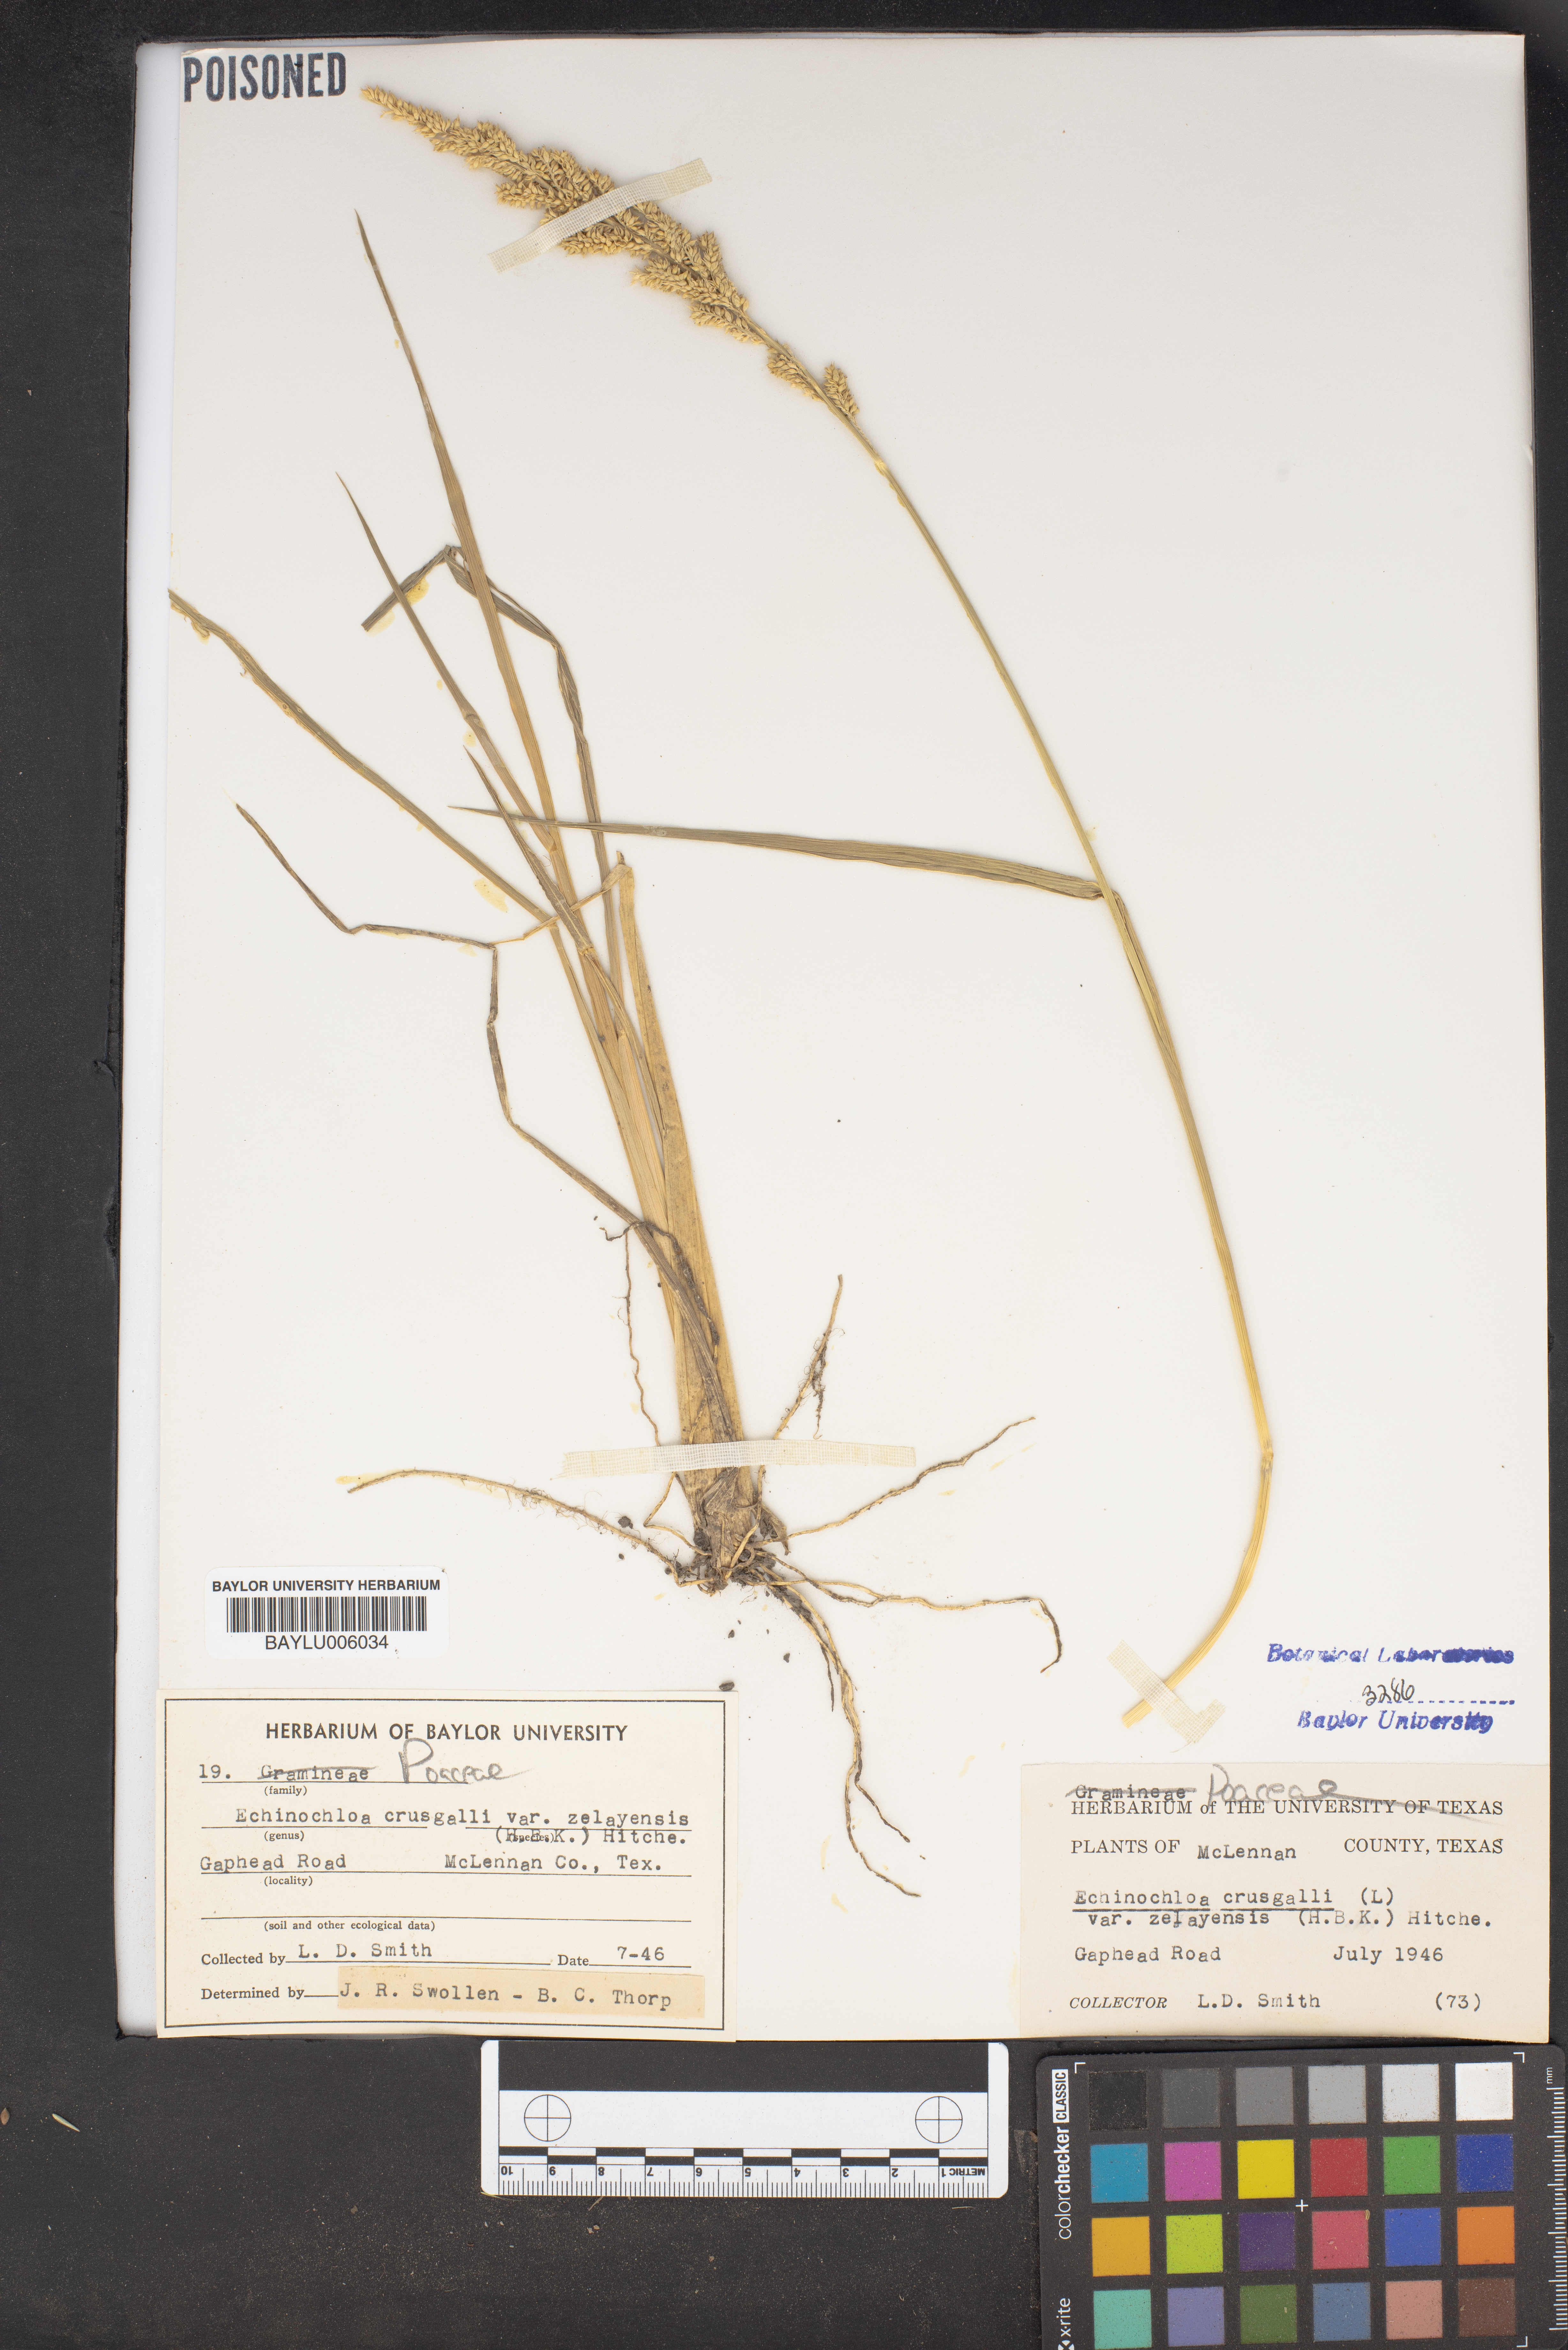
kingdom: Plantae
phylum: Tracheophyta
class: Liliopsida
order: Poales
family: Poaceae
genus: Echinochloa
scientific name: Echinochloa crus-galli
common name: Cockspur
